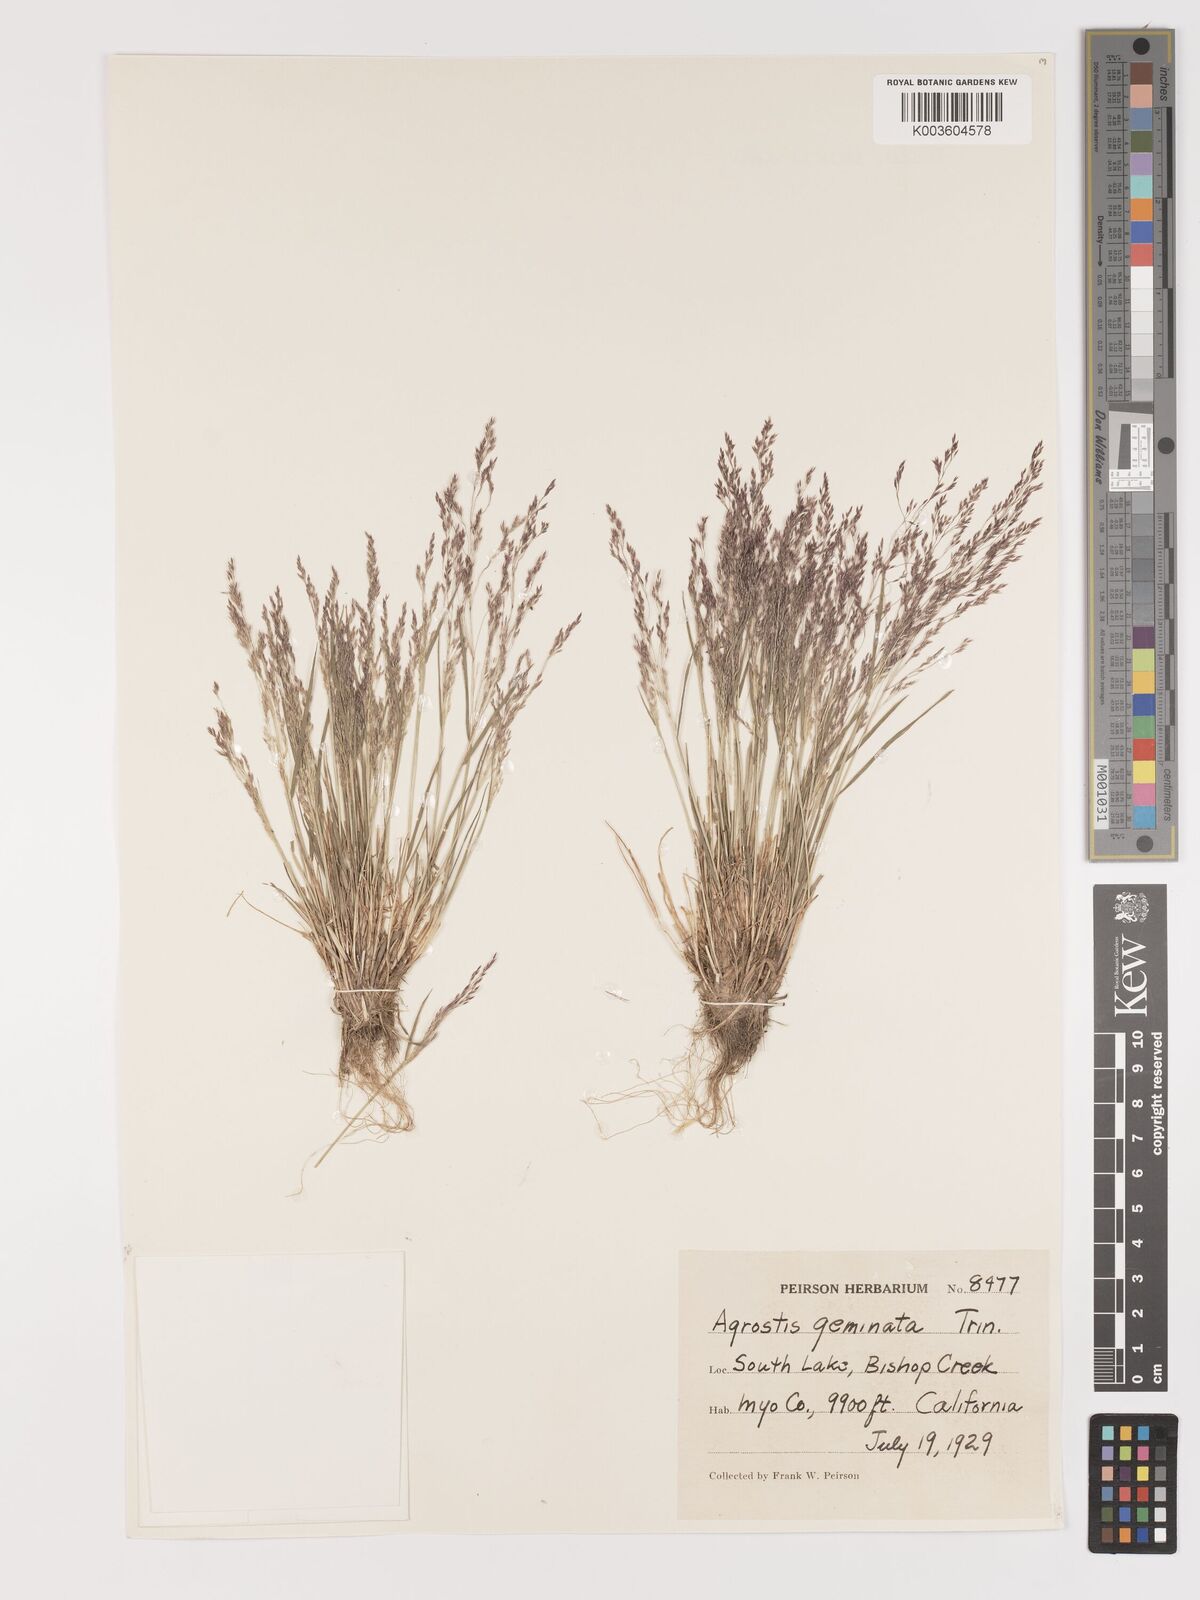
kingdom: Plantae
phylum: Tracheophyta
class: Liliopsida
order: Poales
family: Poaceae
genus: Agrostis
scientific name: Agrostis hyemalis
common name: Small bent
